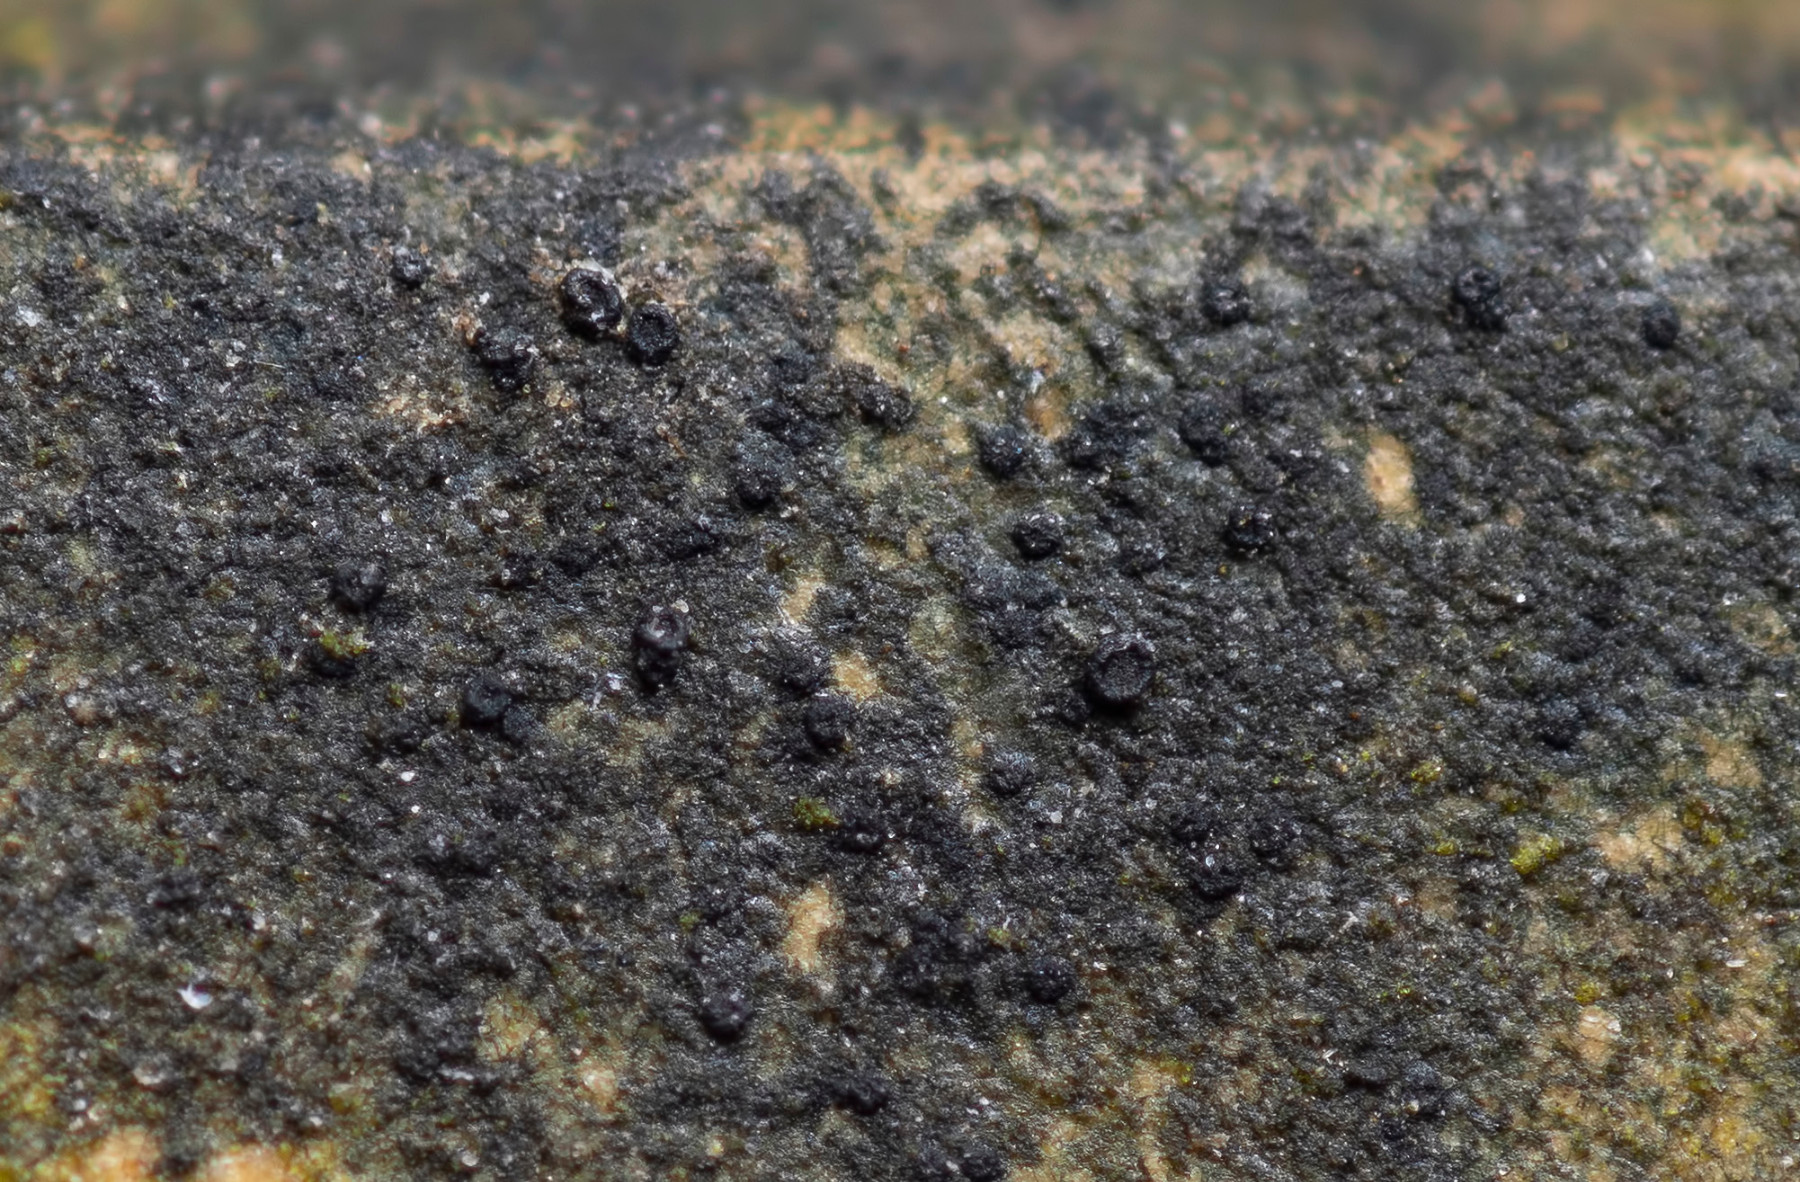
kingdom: Fungi
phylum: Ascomycota
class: Lecanoromycetes
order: Lecanorales
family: Catillariaceae
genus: Catillaria
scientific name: Catillaria atomarioides
